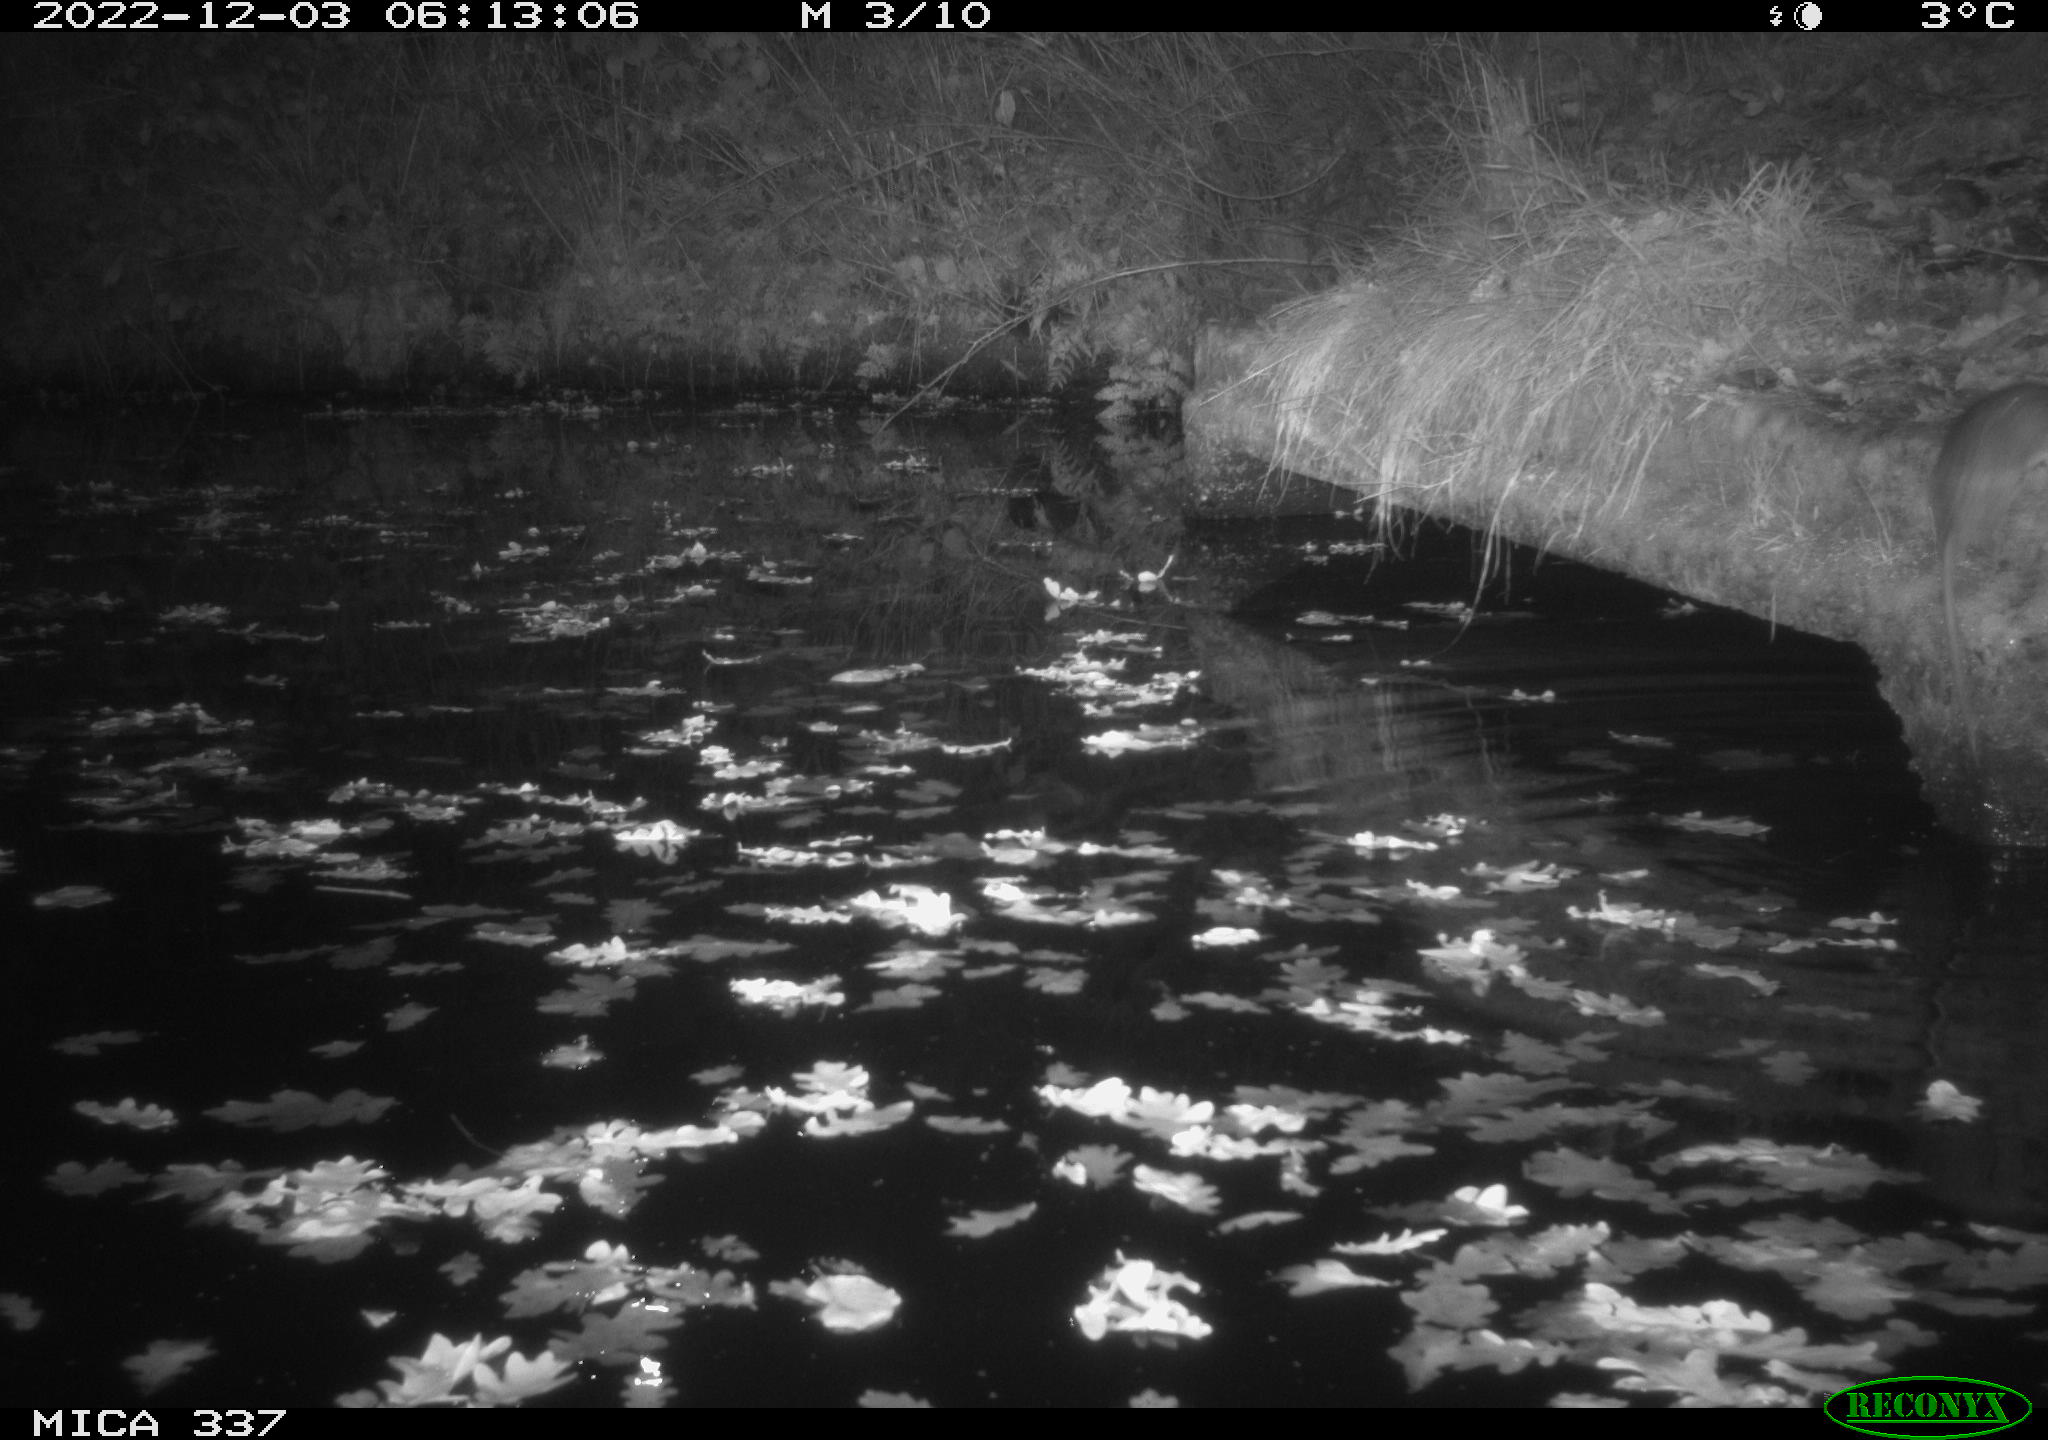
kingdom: Animalia
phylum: Chordata
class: Mammalia
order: Rodentia
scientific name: Rodentia
